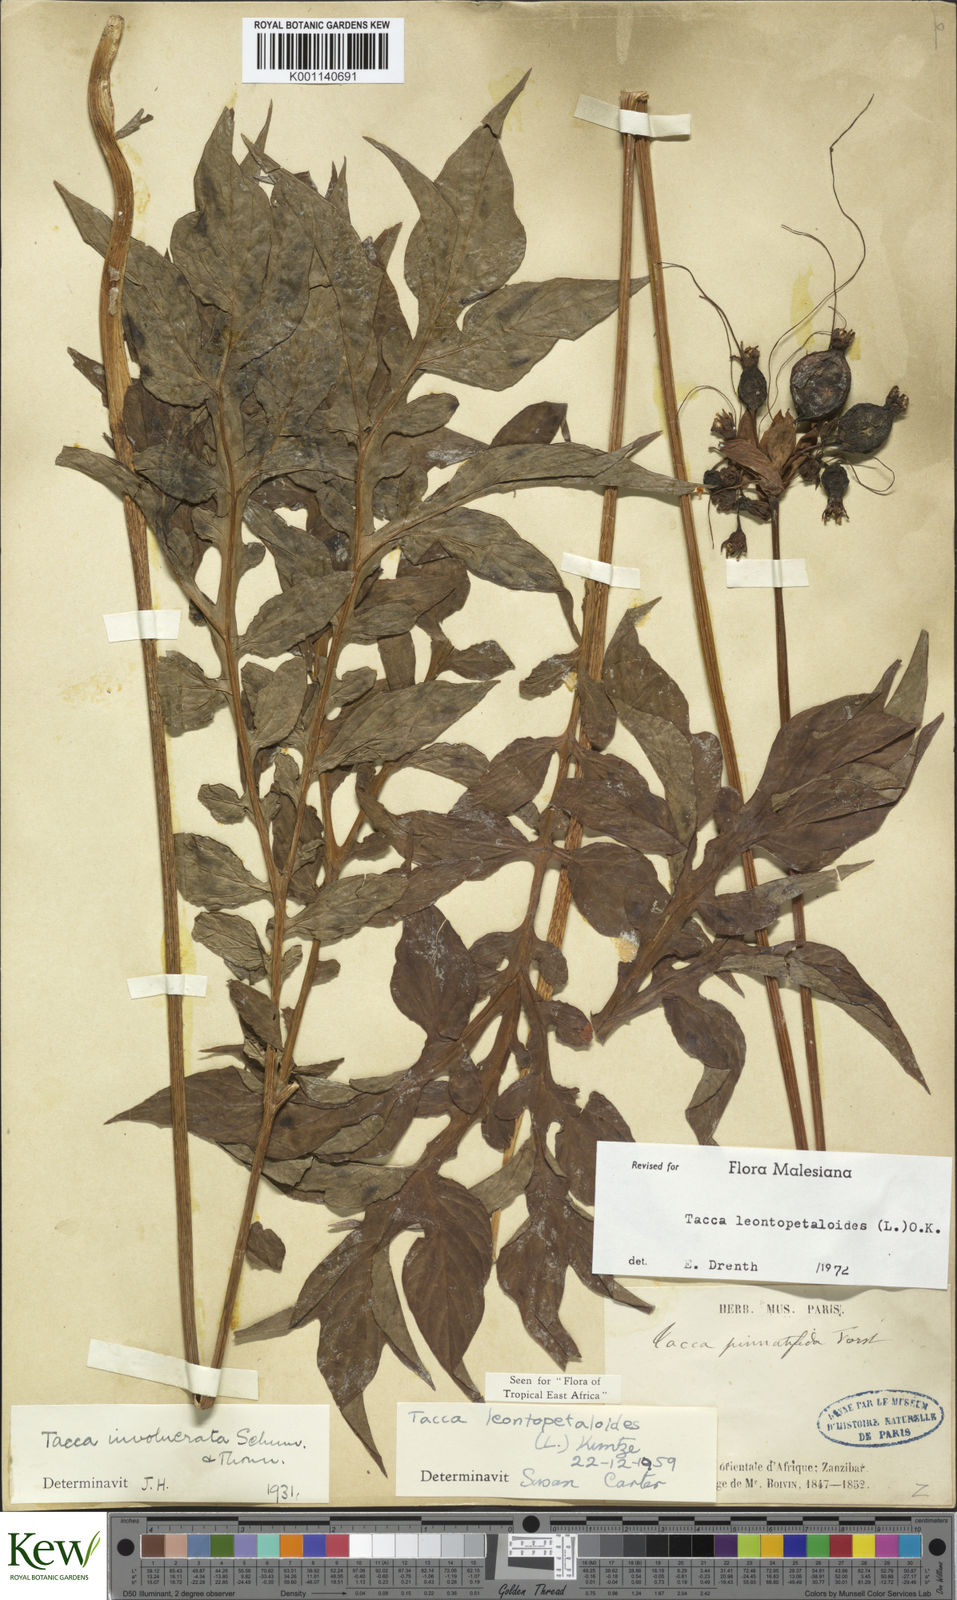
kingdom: Plantae
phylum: Tracheophyta
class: Liliopsida
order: Dioscoreales
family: Dioscoreaceae
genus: Tacca
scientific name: Tacca leontopetaloides
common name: Arrowroot
